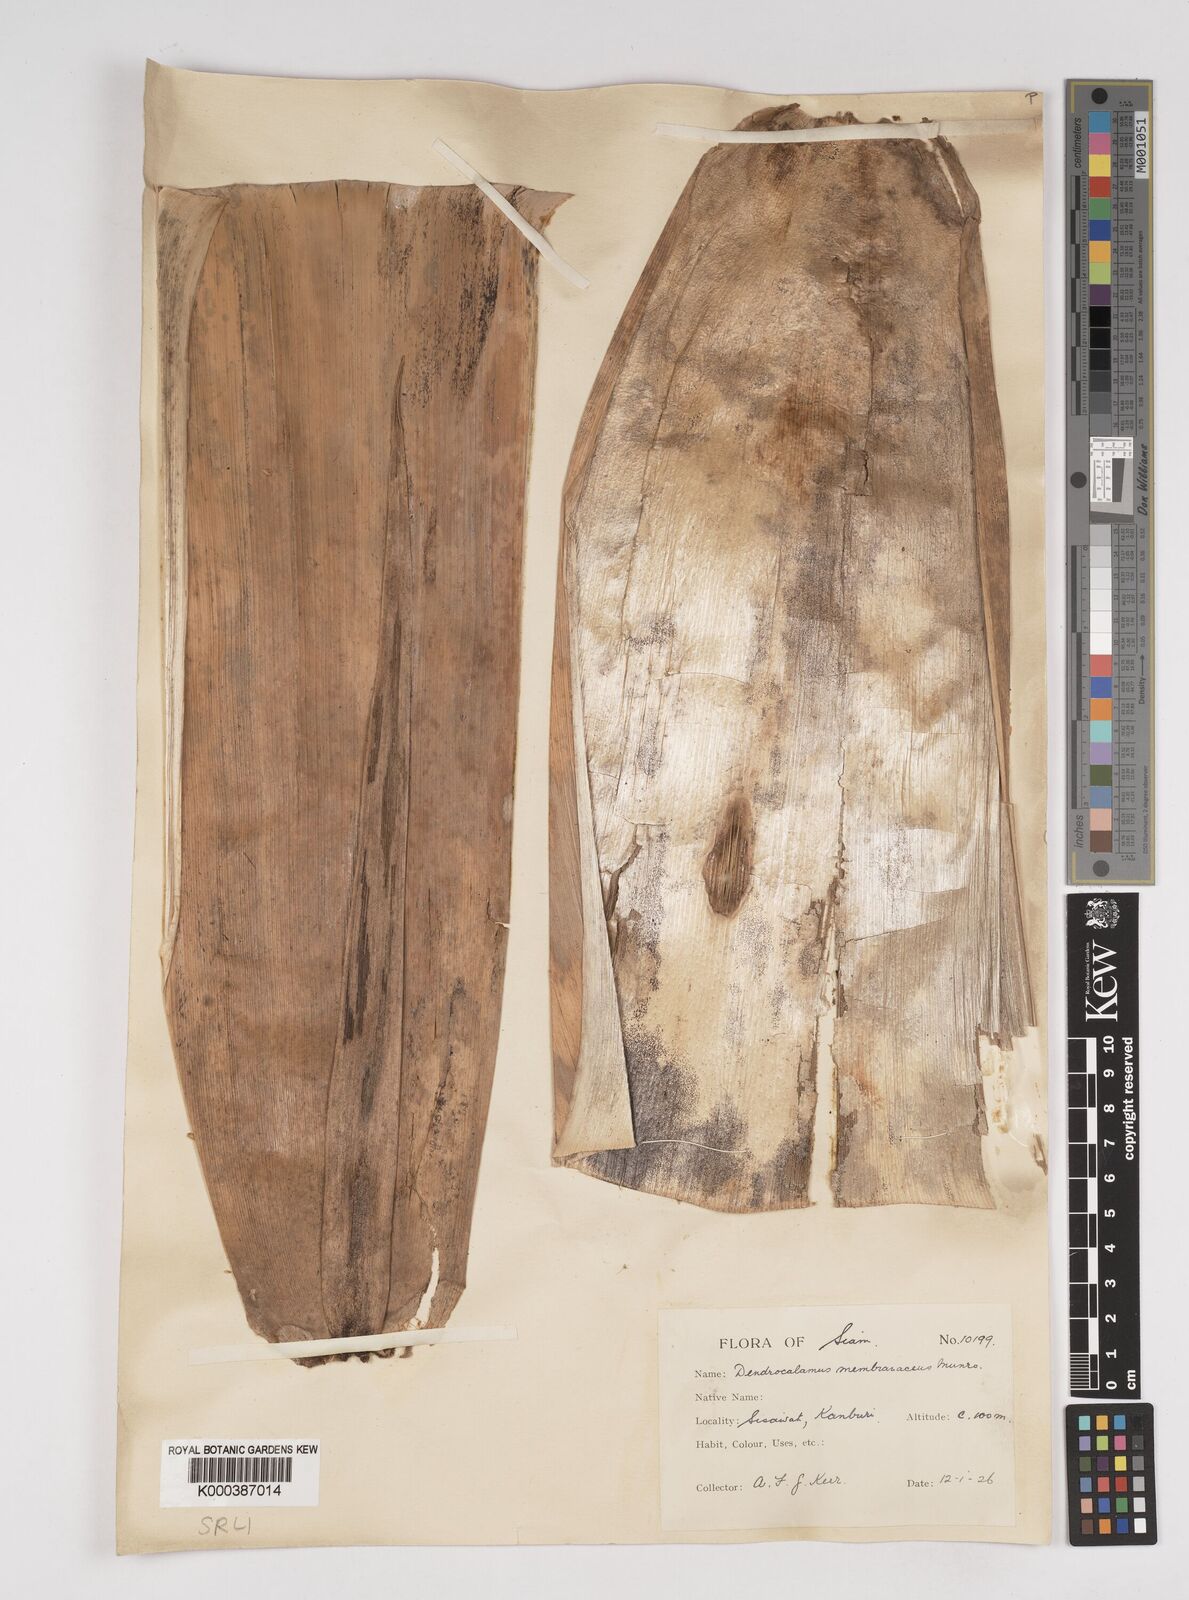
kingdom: Plantae
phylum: Tracheophyta
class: Liliopsida
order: Poales
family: Poaceae
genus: Dendrocalamus
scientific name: Dendrocalamus membranaceus
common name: White bamboo
